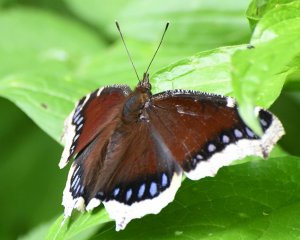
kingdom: Animalia
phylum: Arthropoda
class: Insecta
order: Lepidoptera
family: Nymphalidae
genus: Nymphalis
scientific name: Nymphalis antiopa
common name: Mourning Cloak
